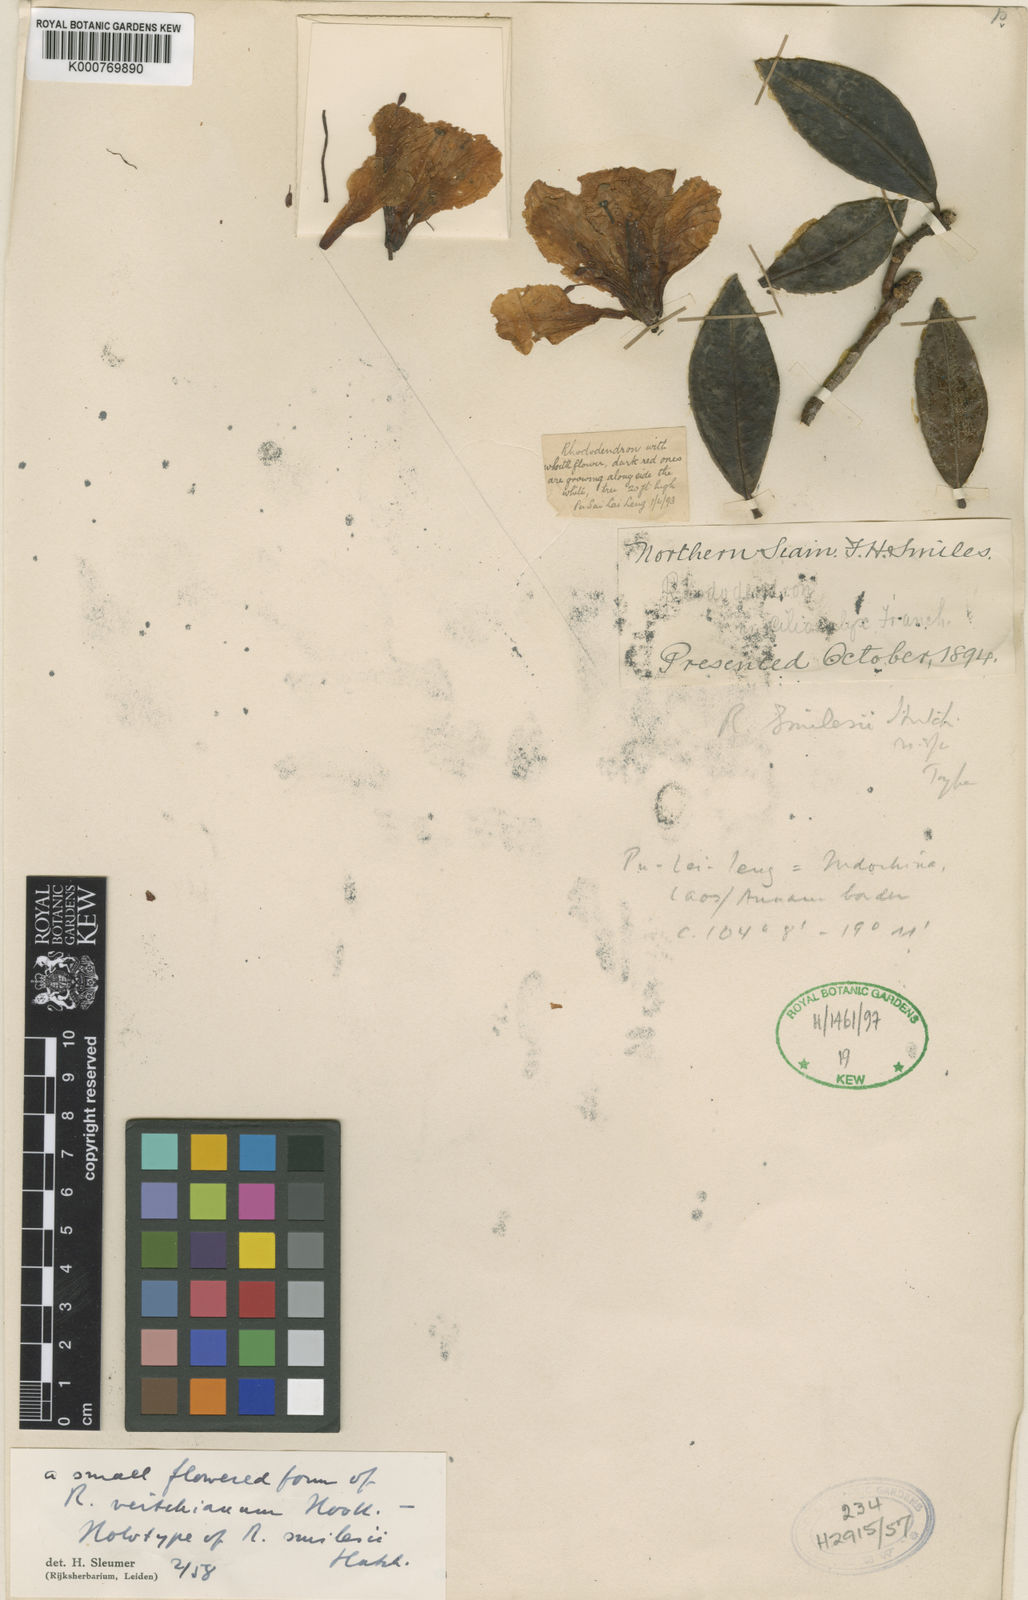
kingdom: Plantae
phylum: Tracheophyta
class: Magnoliopsida
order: Ericales
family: Ericaceae
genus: Rhododendron
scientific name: Rhododendron veitchianum
